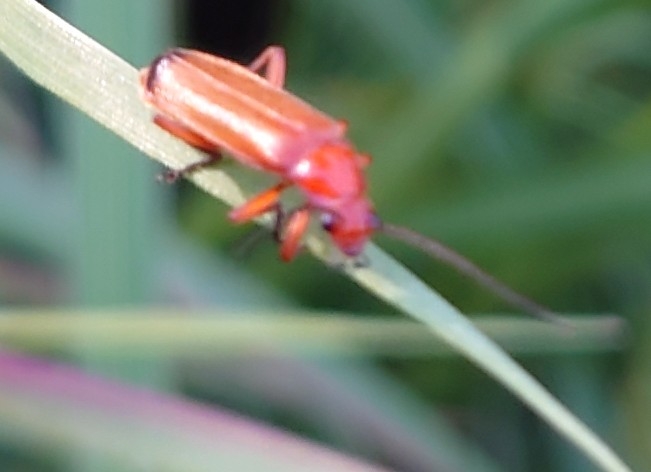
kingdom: Animalia
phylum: Arthropoda
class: Insecta
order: Coleoptera
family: Cantharidae
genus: Rhagonycha
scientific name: Rhagonycha fulva
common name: Præstebille
